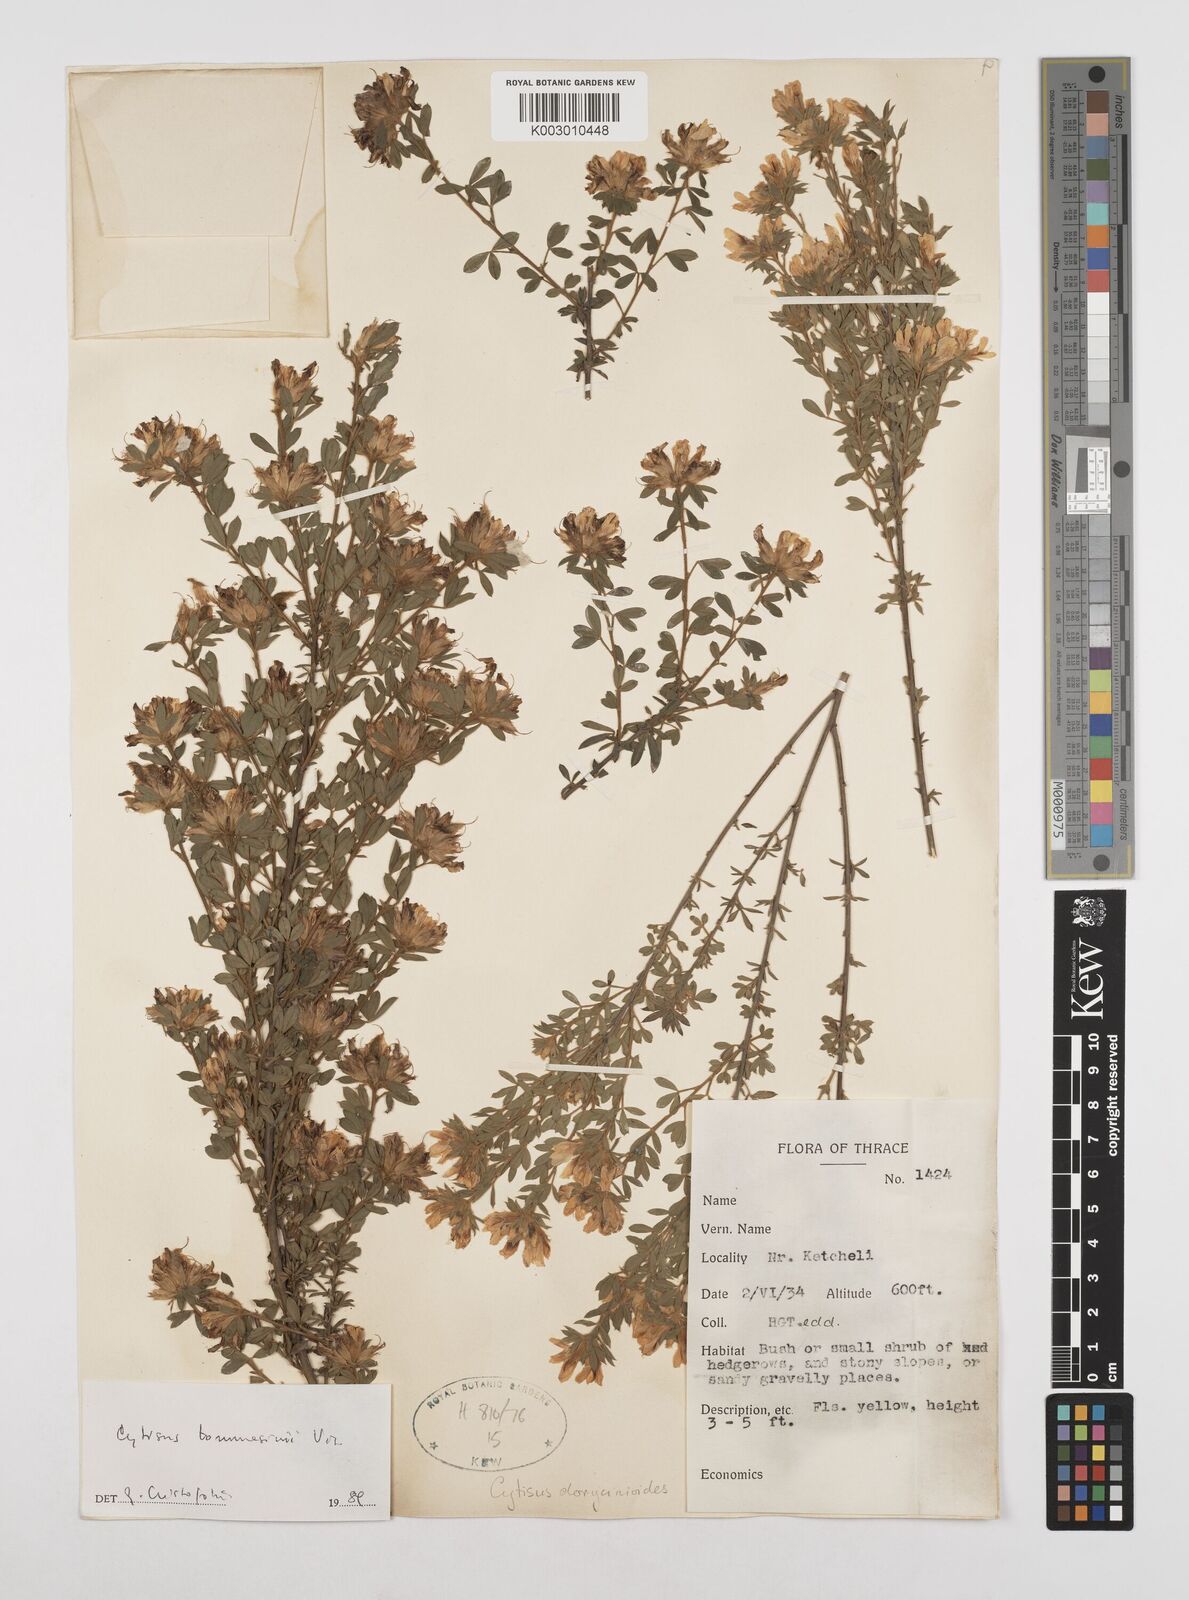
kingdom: Plantae
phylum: Tracheophyta
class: Magnoliopsida
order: Fabales
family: Fabaceae
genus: Chamaecytisus
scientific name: Chamaecytisus tommasinii
